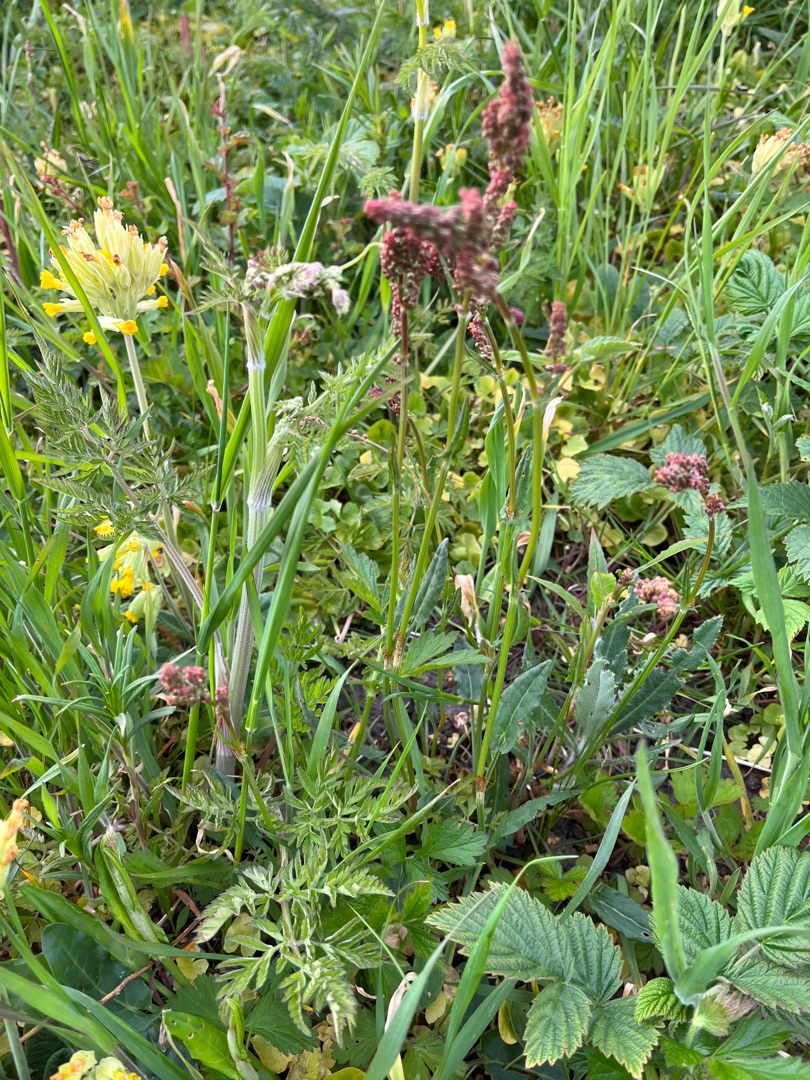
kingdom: Plantae
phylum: Tracheophyta
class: Magnoliopsida
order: Caryophyllales
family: Polygonaceae
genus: Rumex
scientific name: Rumex acetosa
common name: Almindelig syre
